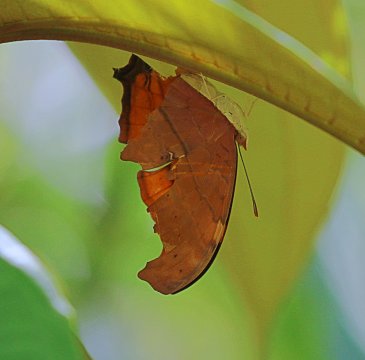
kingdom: Animalia
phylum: Arthropoda
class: Insecta
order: Lepidoptera
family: Nymphalidae
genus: Marpesia
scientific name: Marpesia petreus
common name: Ruddy Daggerwing
